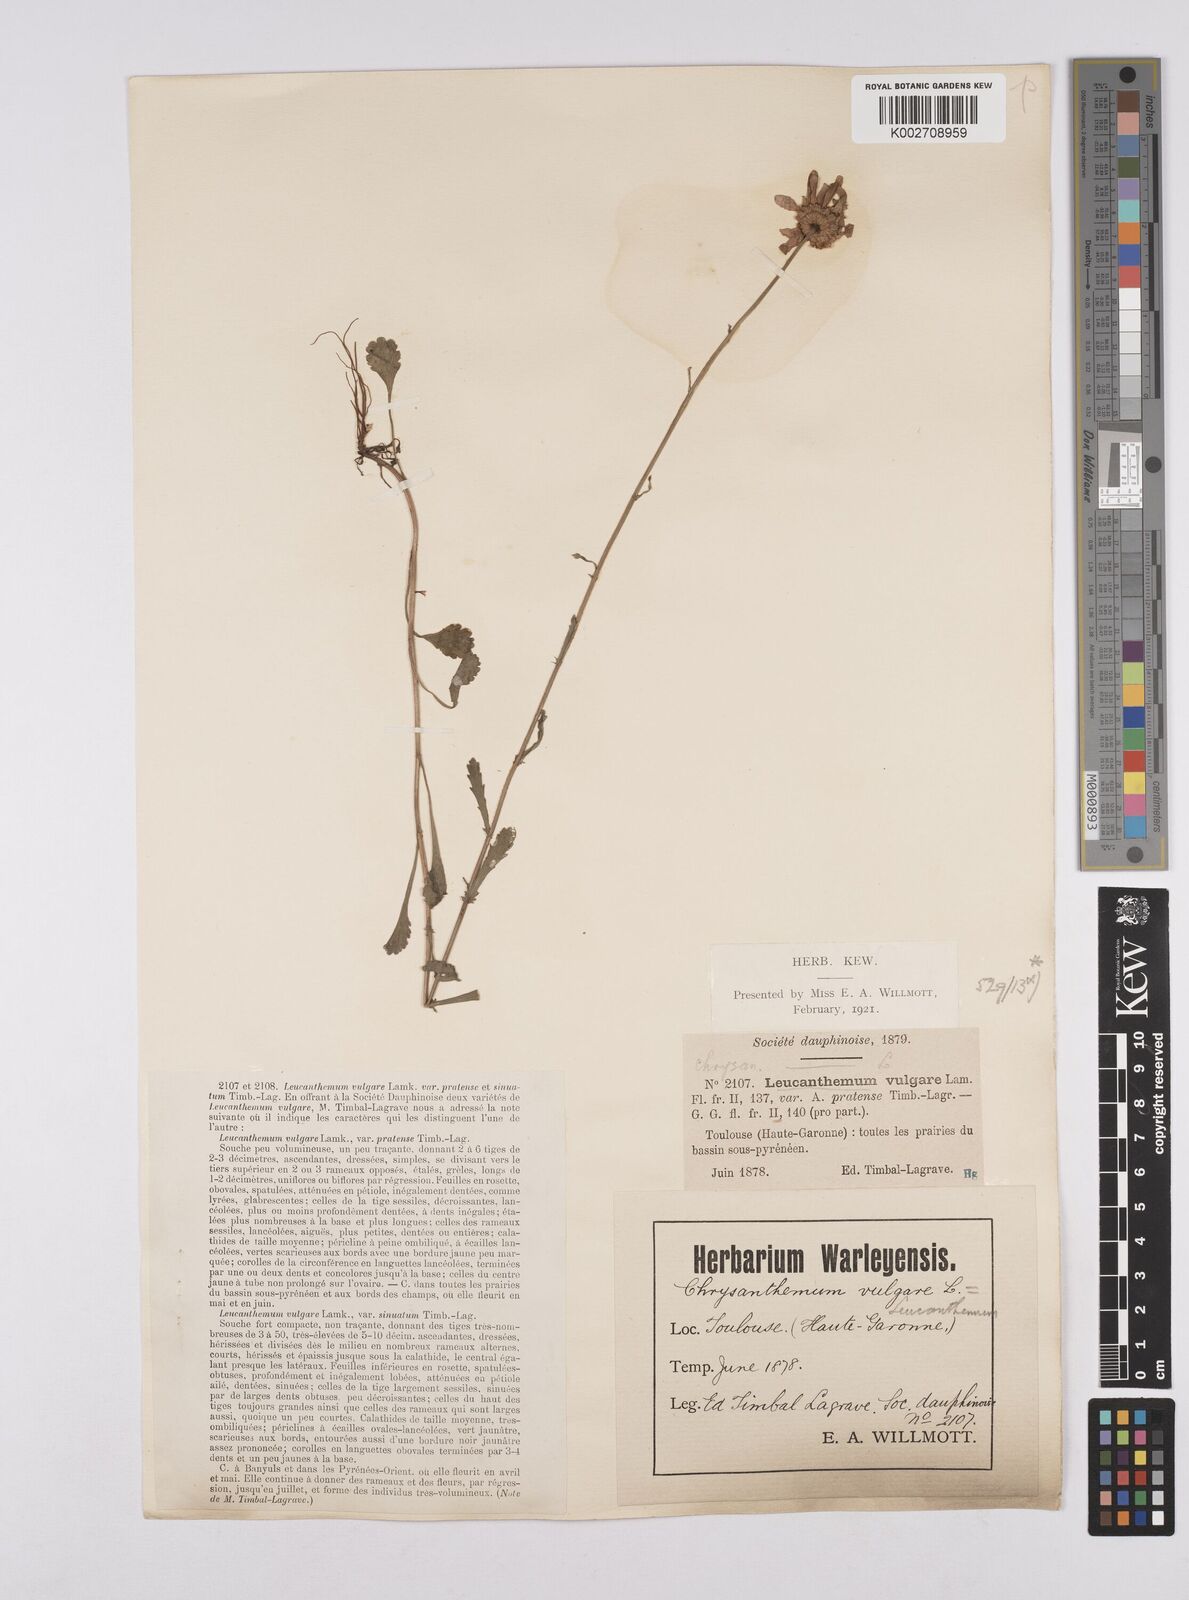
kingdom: Plantae
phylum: Tracheophyta
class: Magnoliopsida
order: Asterales
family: Asteraceae
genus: Leucanthemum
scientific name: Leucanthemum vulgare
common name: Oxeye daisy
